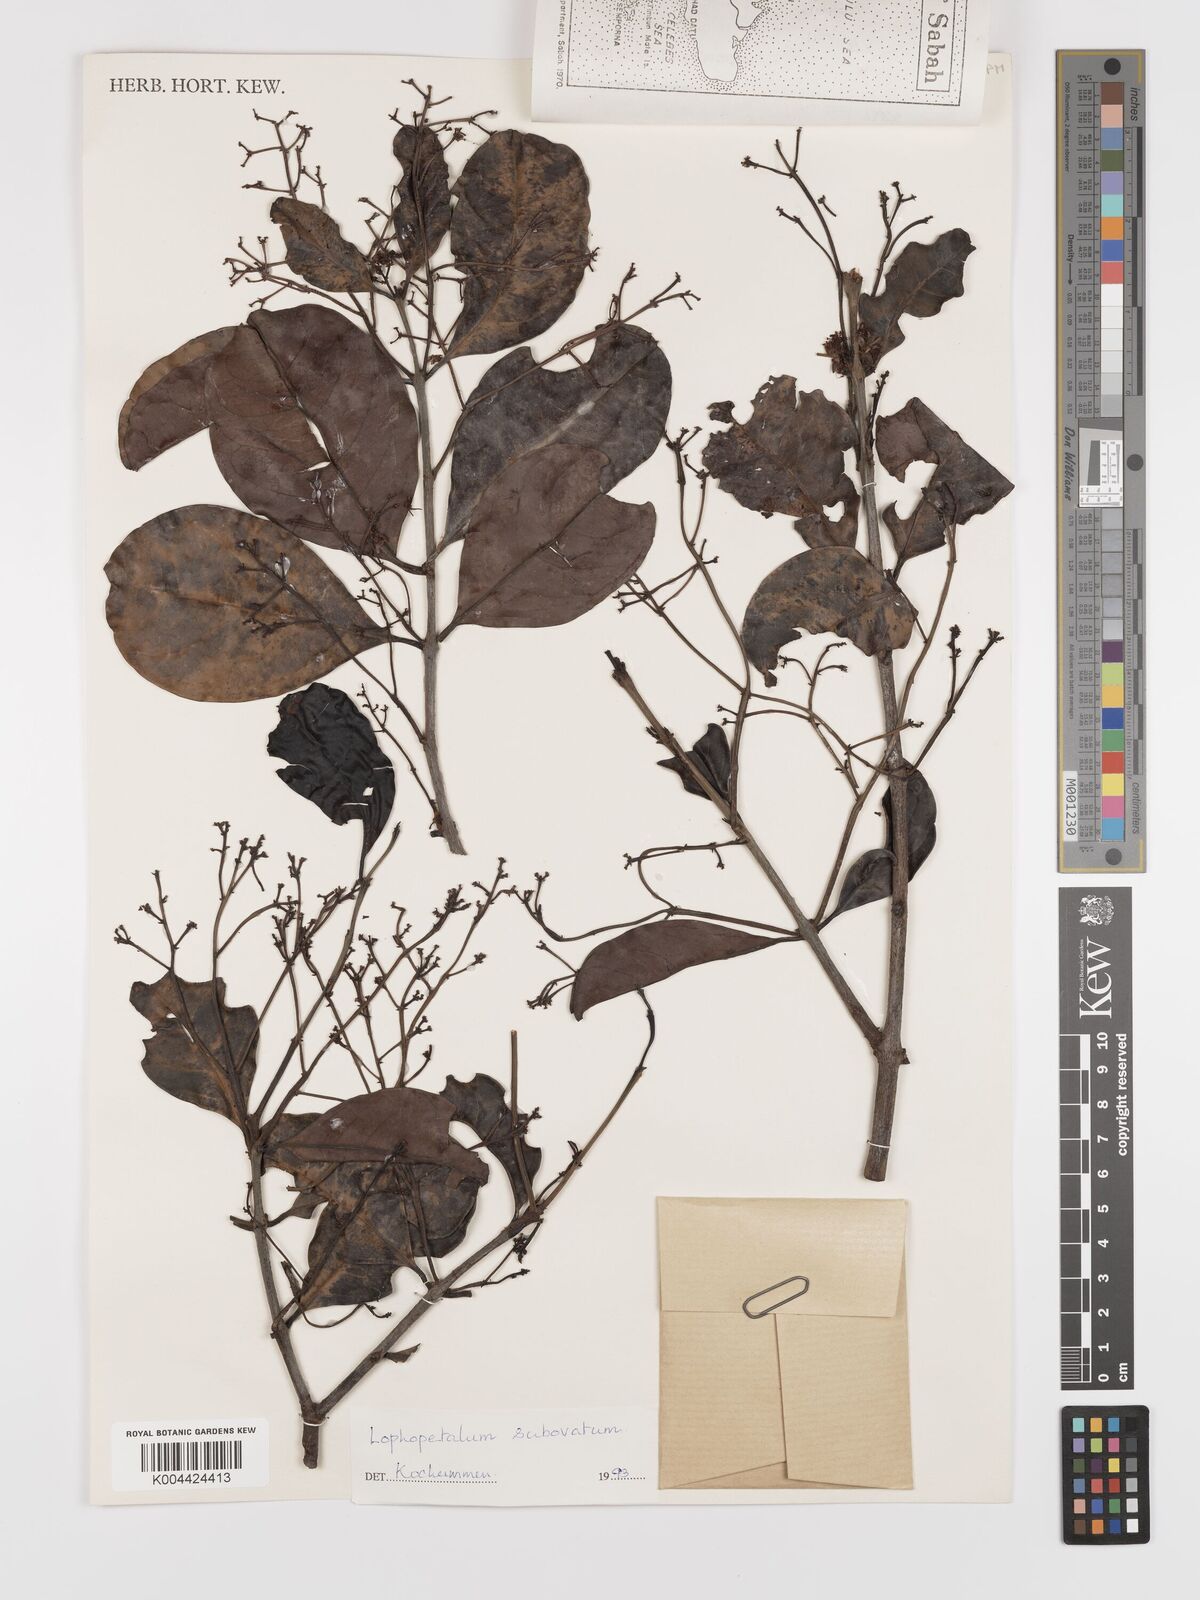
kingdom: Plantae
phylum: Tracheophyta
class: Magnoliopsida
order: Celastrales
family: Celastraceae
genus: Lophopetalum
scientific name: Lophopetalum
